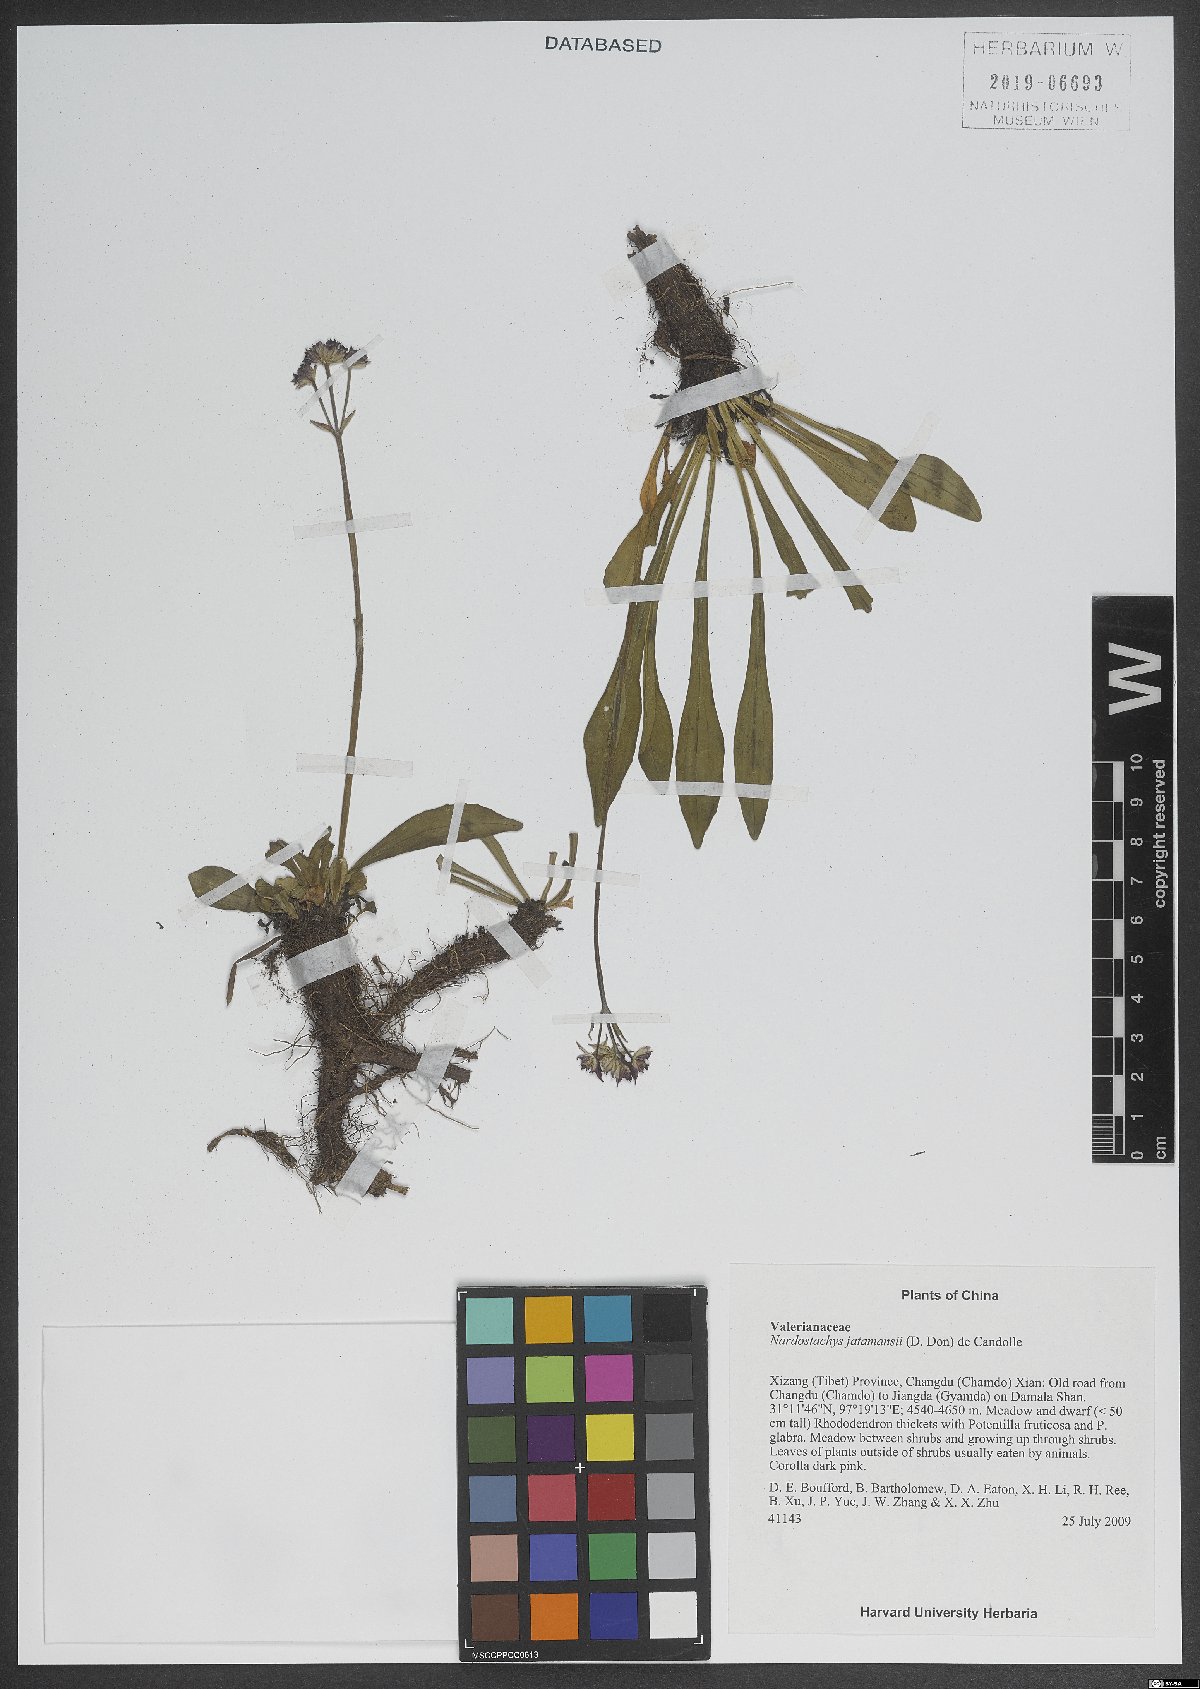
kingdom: Plantae
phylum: Tracheophyta
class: Magnoliopsida
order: Dipsacales
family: Caprifoliaceae
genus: Nardostachys
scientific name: Nardostachys jatamansi
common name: Indian nard
